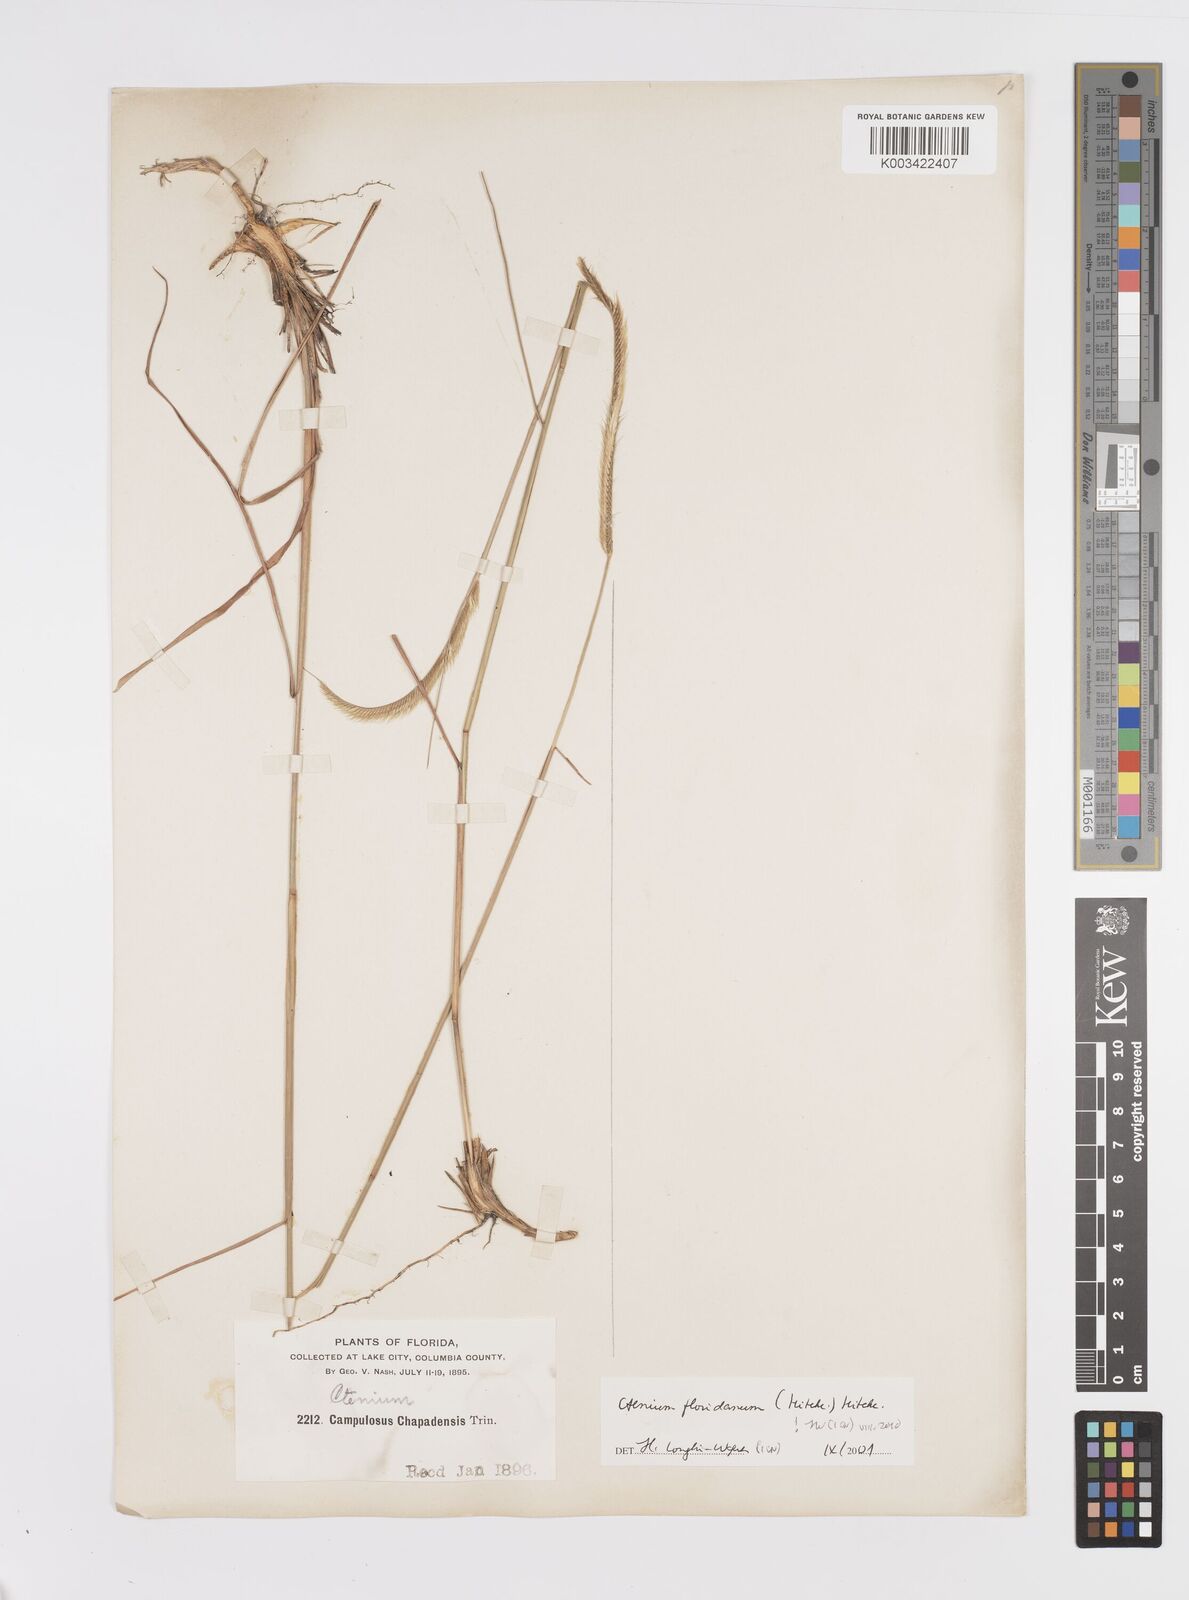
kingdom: Plantae
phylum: Tracheophyta
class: Liliopsida
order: Poales
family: Poaceae
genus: Ctenium
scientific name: Ctenium floridanum
